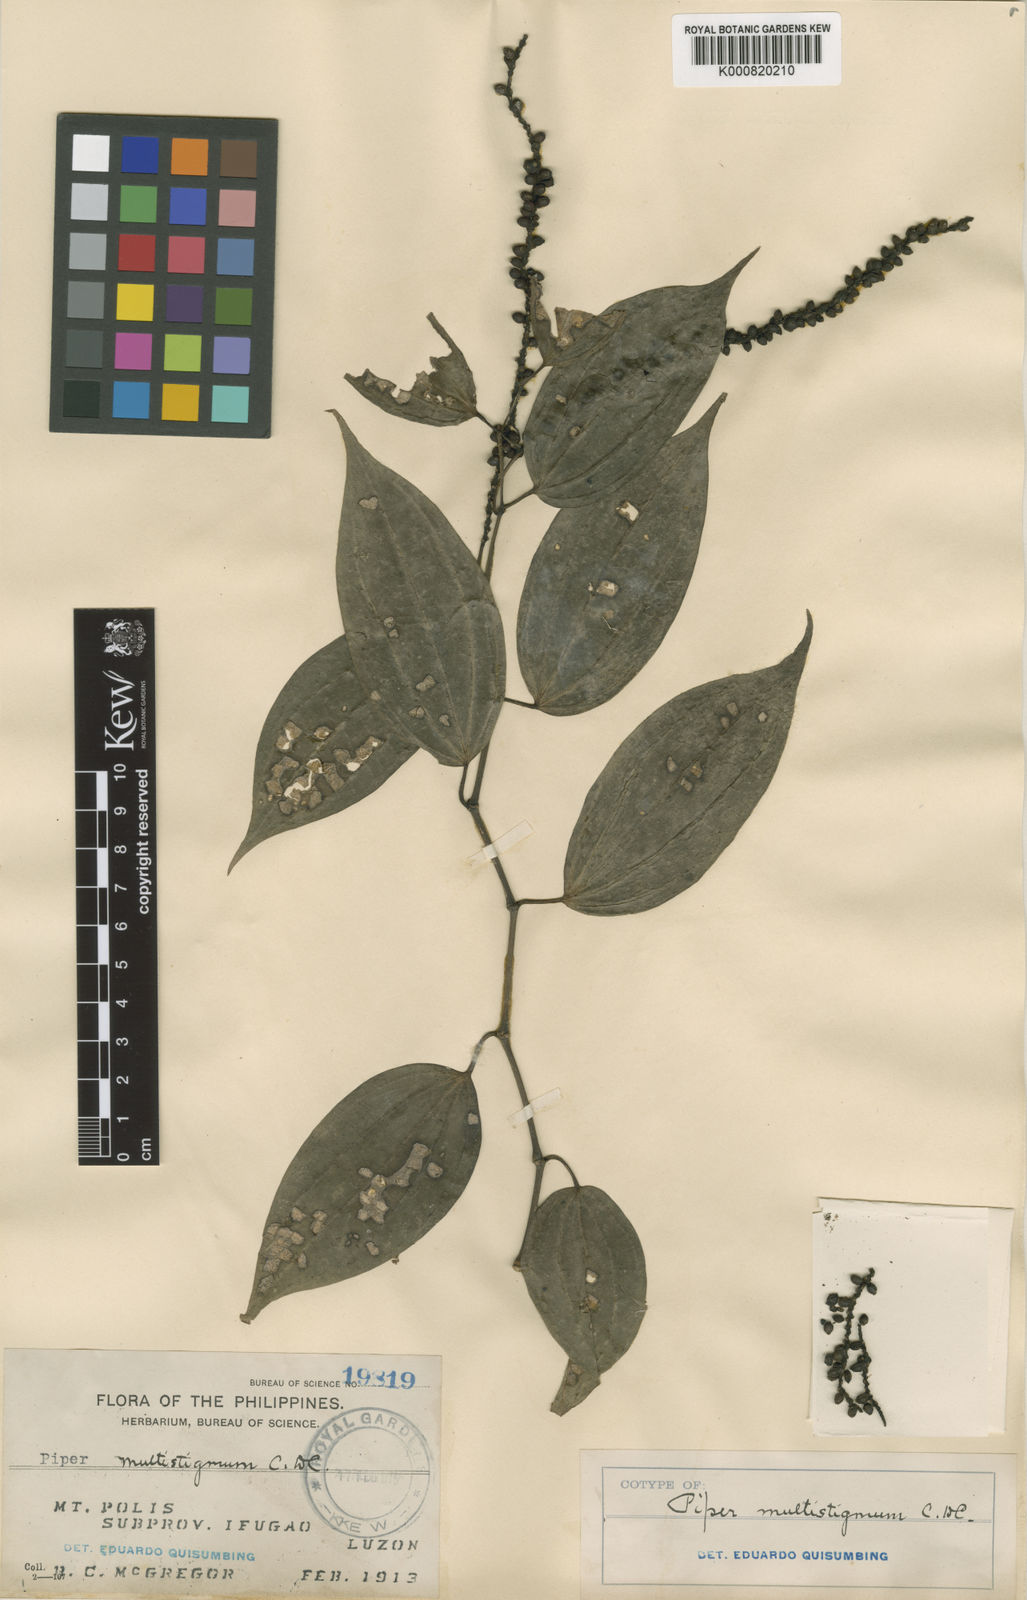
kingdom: Plantae
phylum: Tracheophyta
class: Magnoliopsida
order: Piperales
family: Piperaceae
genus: Piper
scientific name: Piper multistigmum
